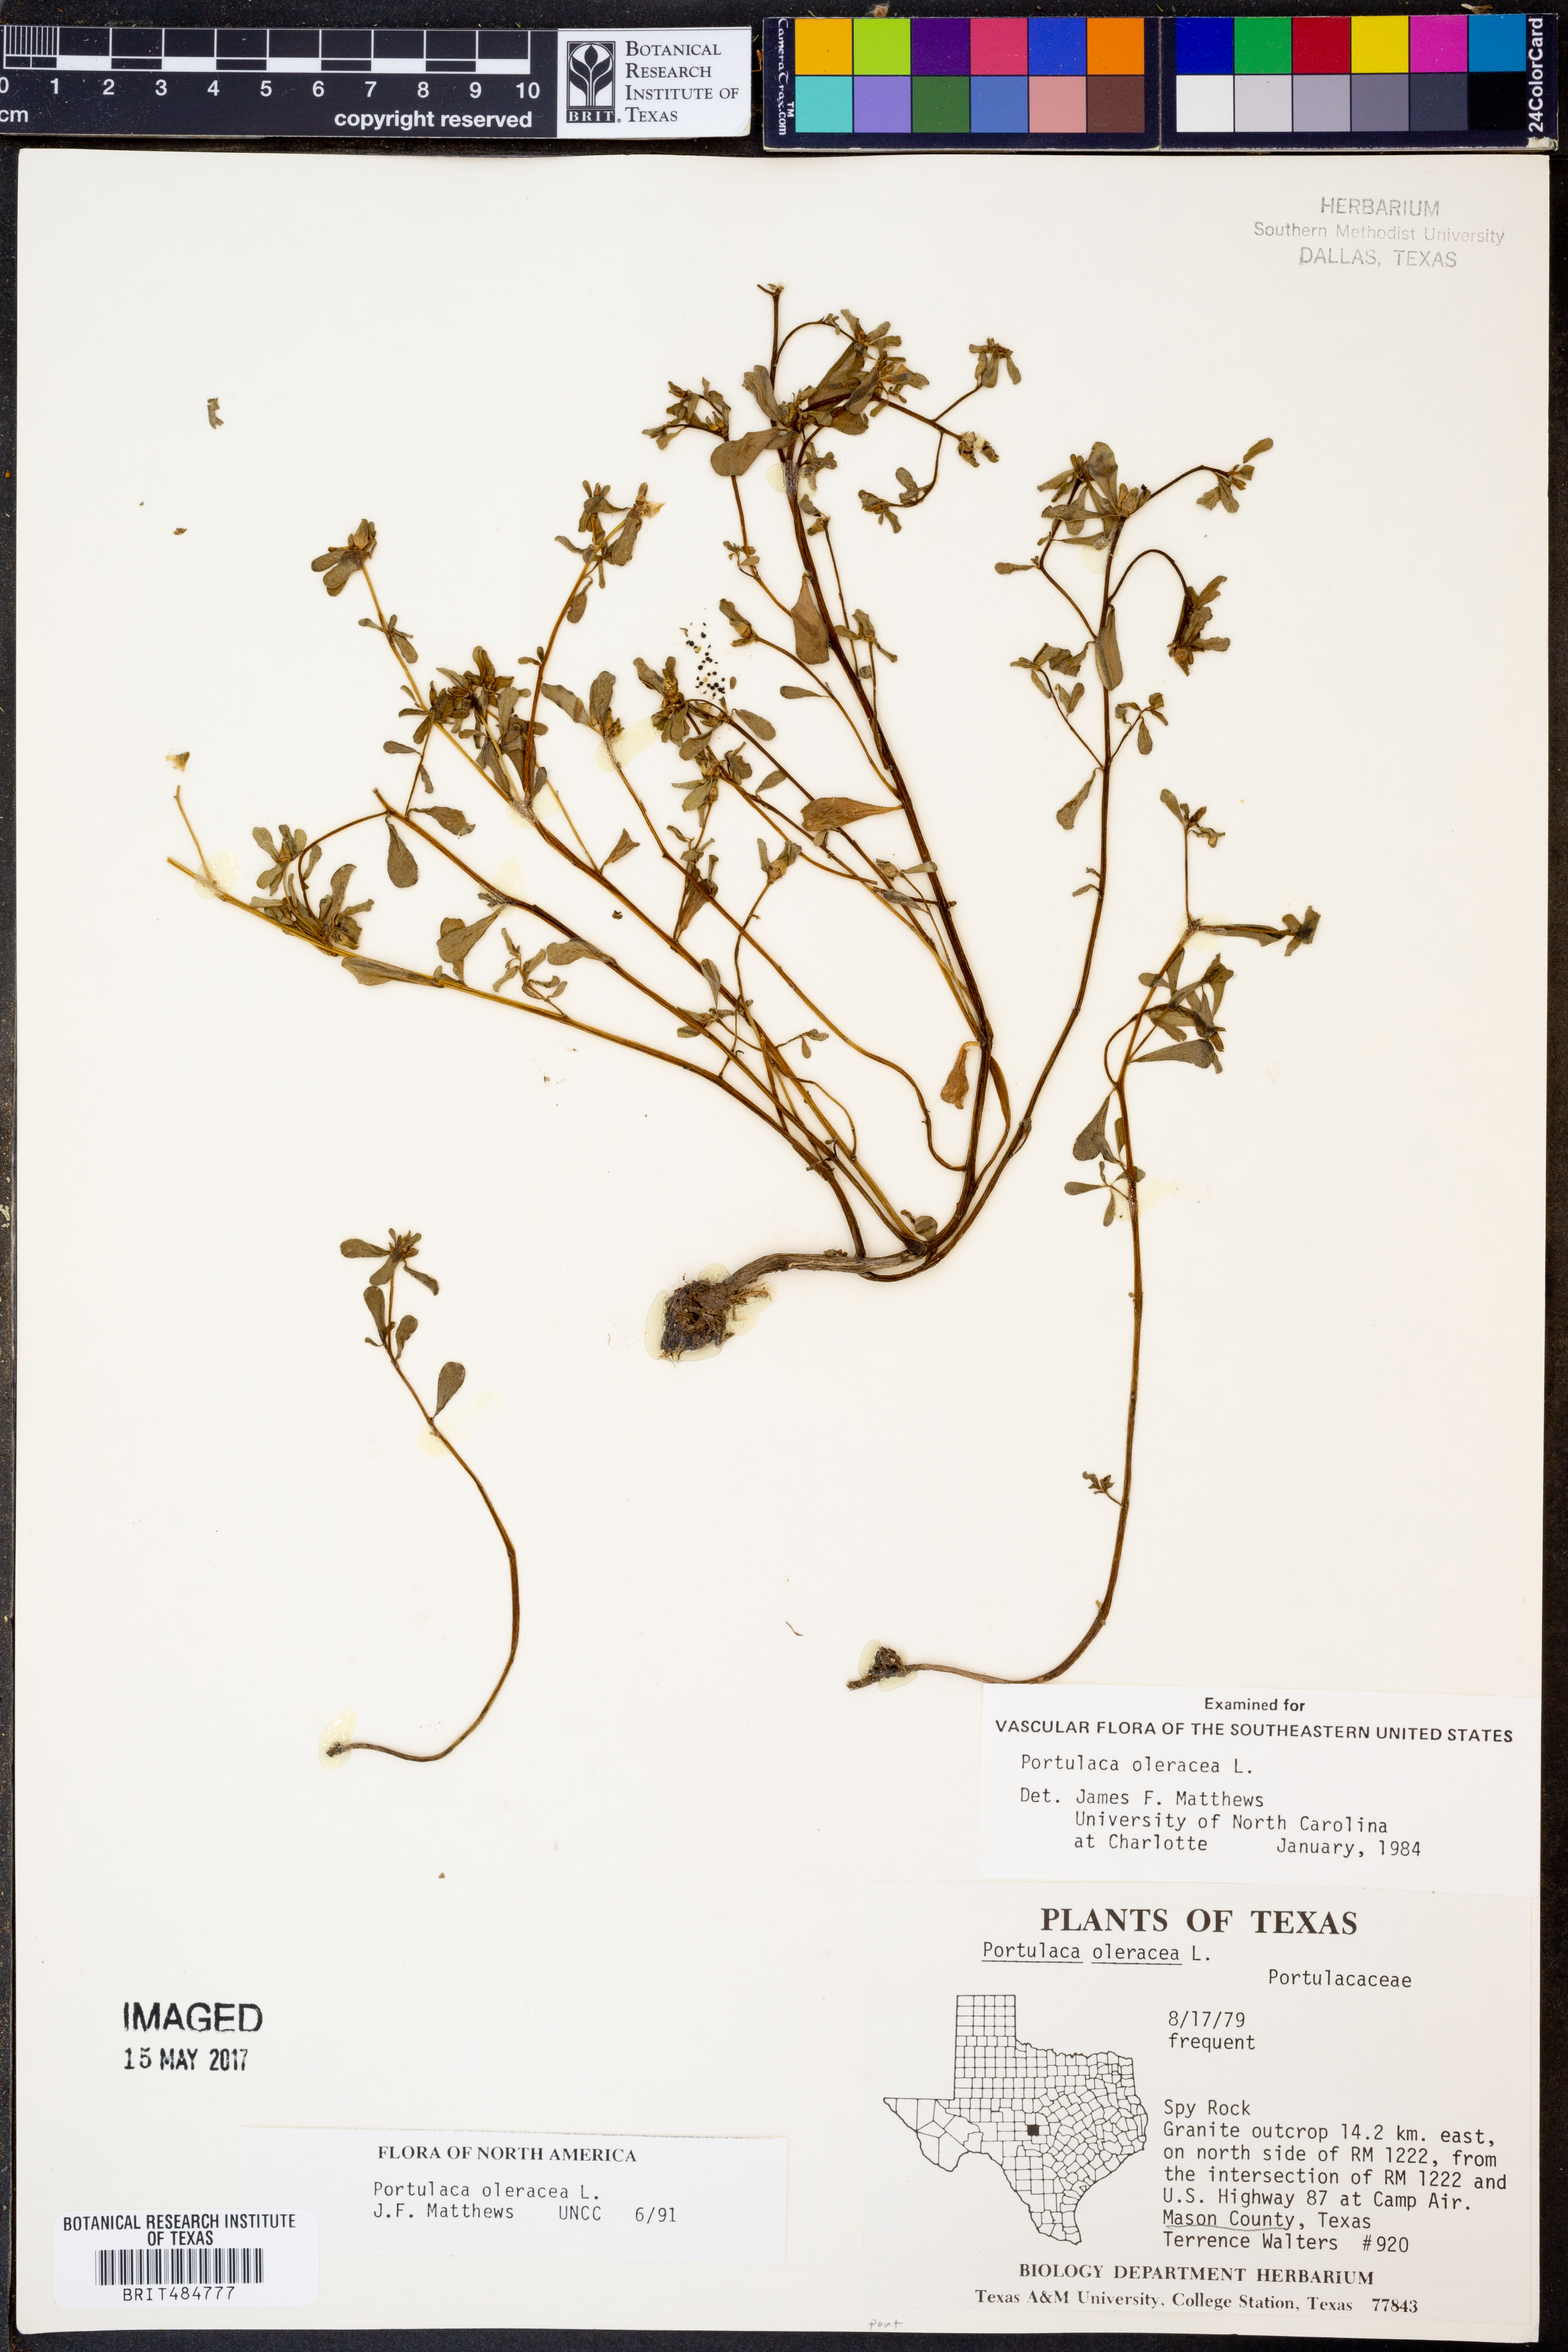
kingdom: Plantae
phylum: Tracheophyta
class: Magnoliopsida
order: Caryophyllales
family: Portulacaceae
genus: Portulaca
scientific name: Portulaca oleracea
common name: Common purslane
